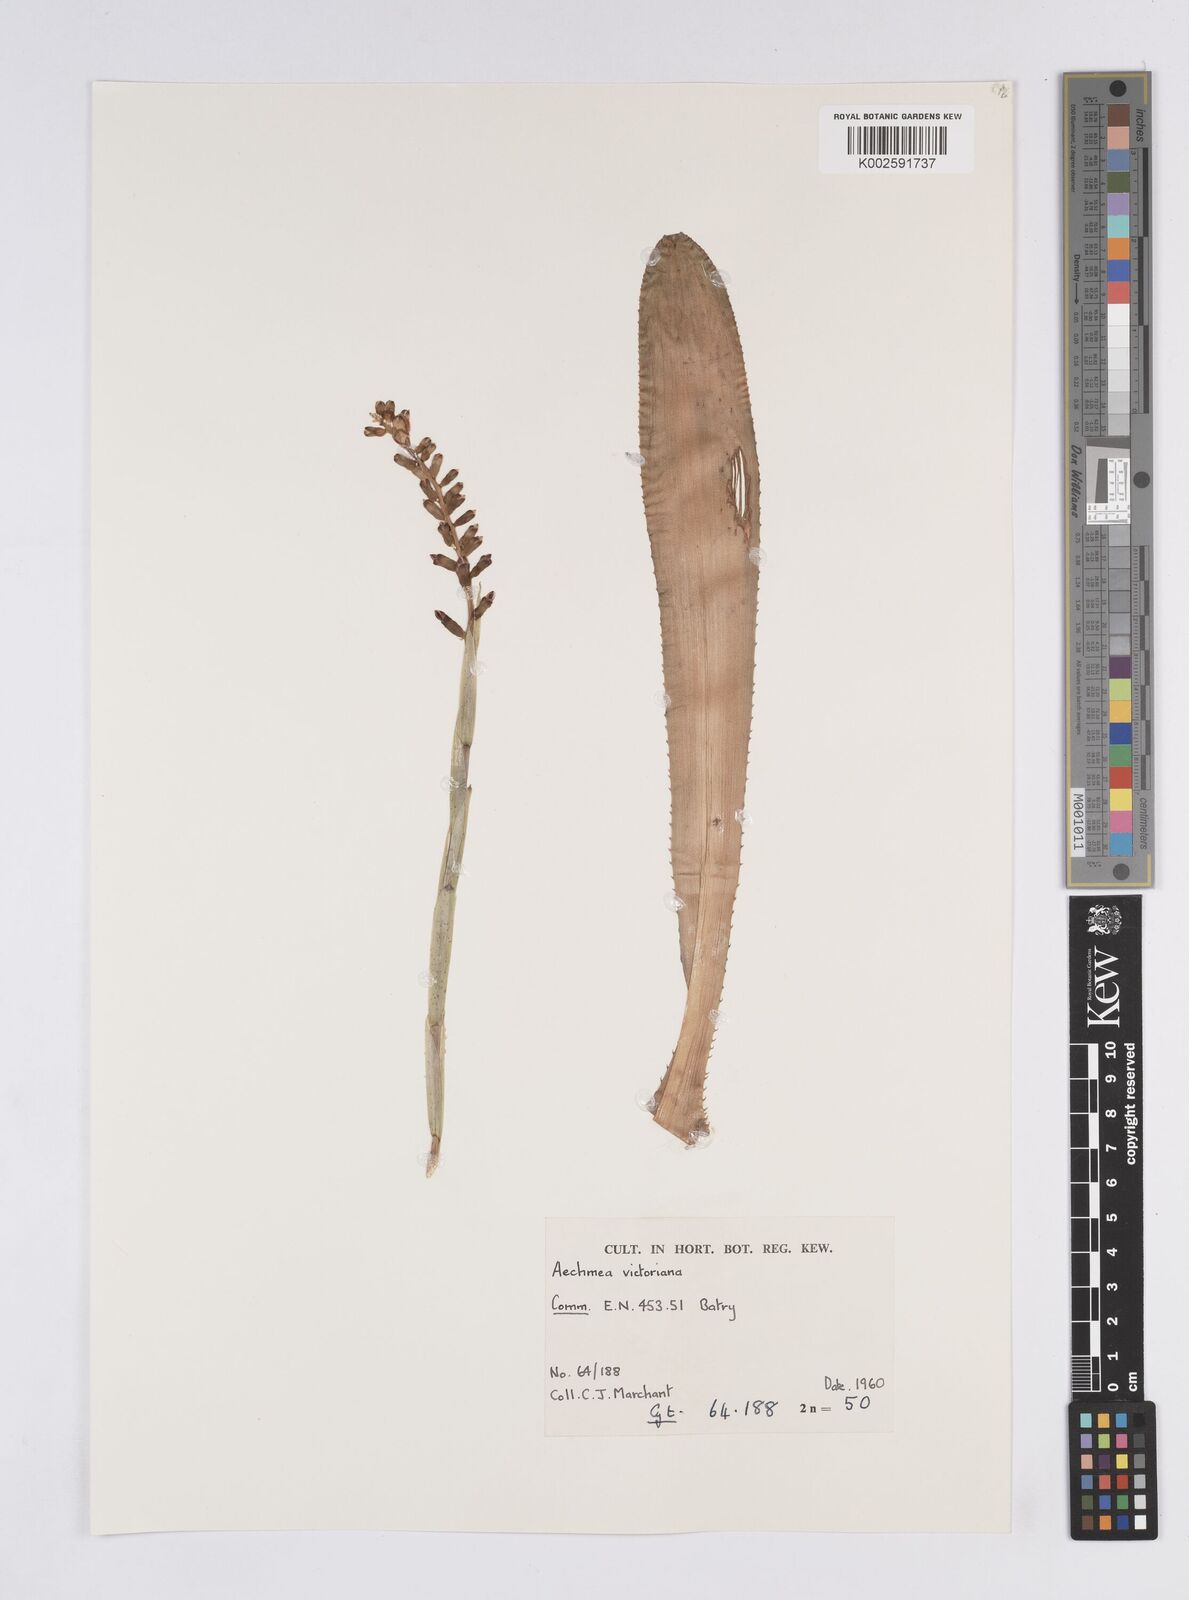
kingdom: Plantae
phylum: Tracheophyta
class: Liliopsida
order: Poales
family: Bromeliaceae
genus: Aechmea
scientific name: Aechmea victoriana
